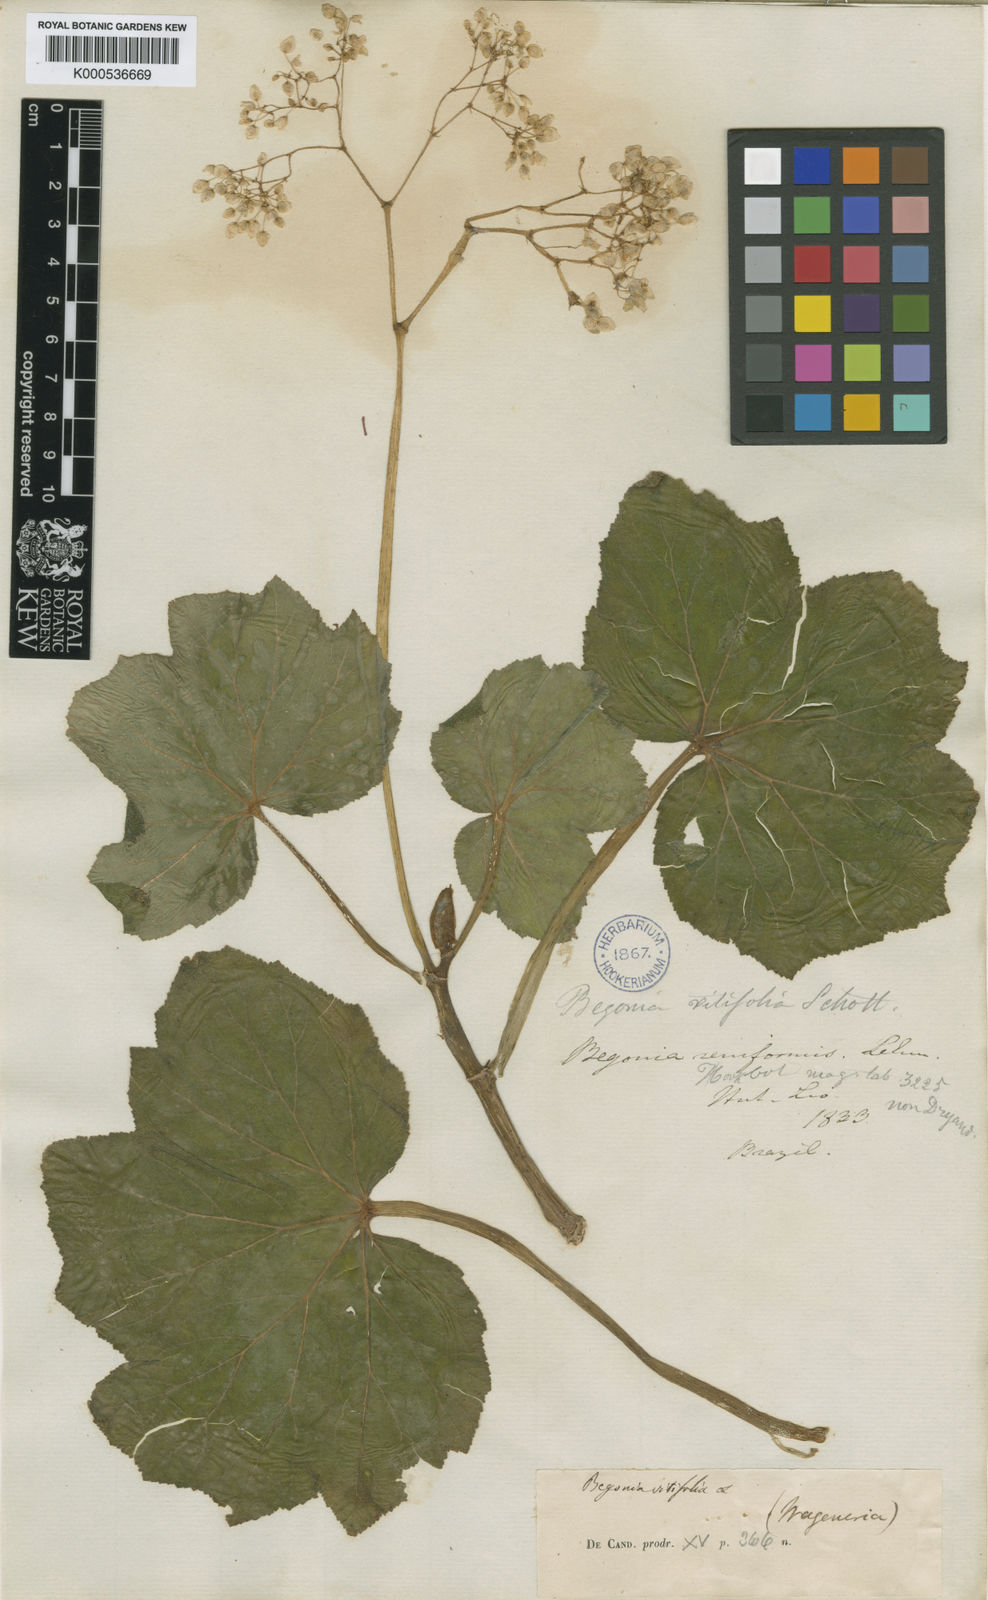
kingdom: Plantae
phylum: Tracheophyta
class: Magnoliopsida
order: Cucurbitales
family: Begoniaceae
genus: Begonia
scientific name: Begonia reniformis
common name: Grapeleaf begonia
